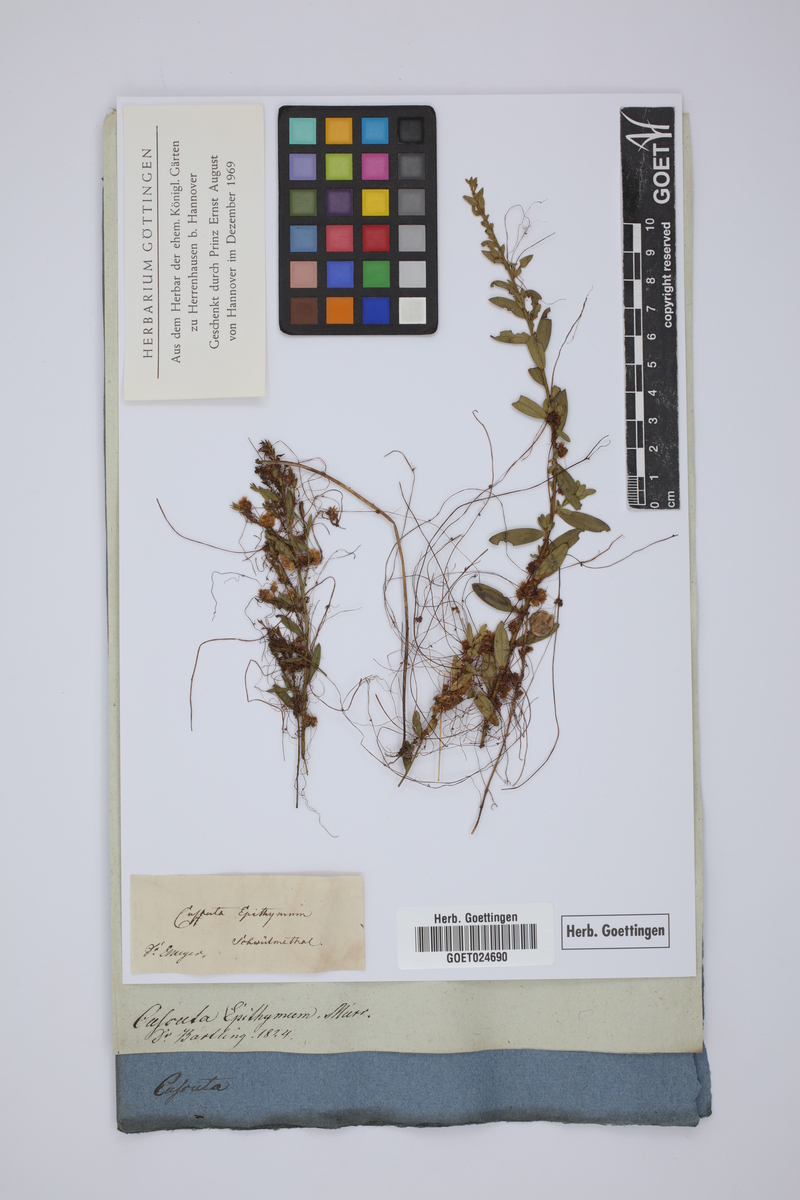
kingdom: Plantae
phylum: Tracheophyta
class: Magnoliopsida
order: Solanales
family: Convolvulaceae
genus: Cuscuta
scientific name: Cuscuta epithymum
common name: Clover dodder
